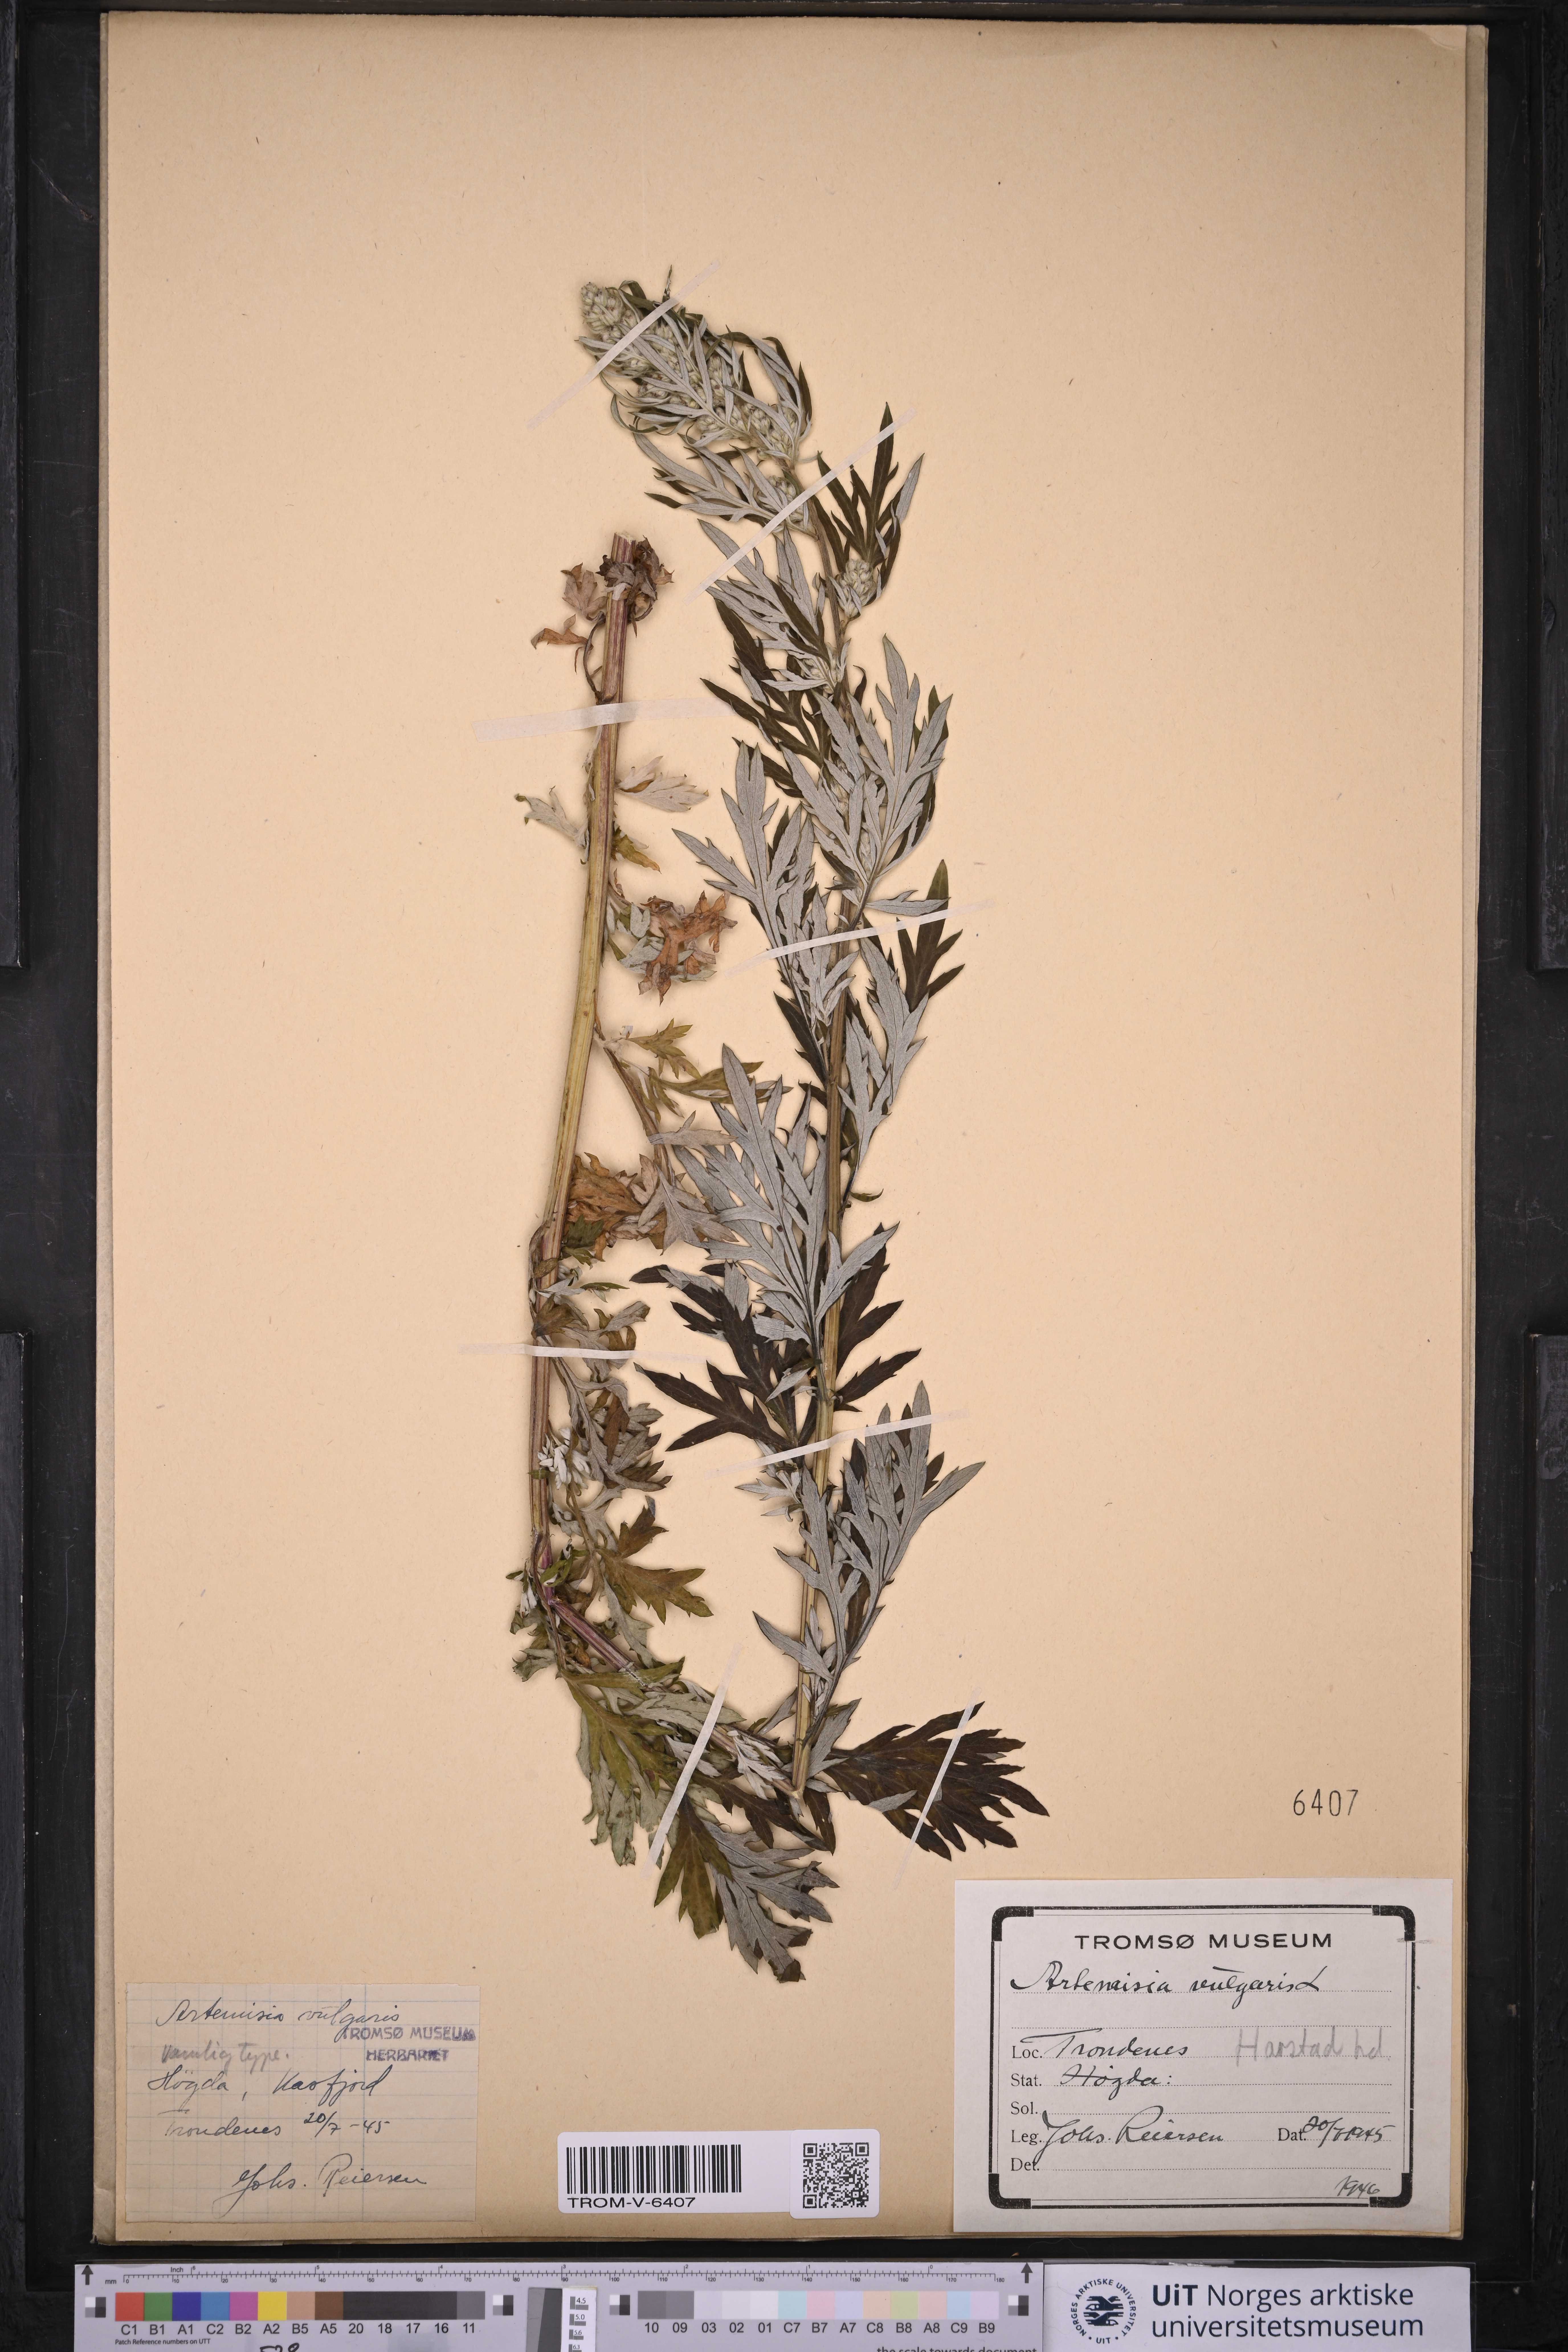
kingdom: Plantae
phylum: Tracheophyta
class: Magnoliopsida
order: Asterales
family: Asteraceae
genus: Artemisia
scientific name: Artemisia vulgaris
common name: Mugwort
